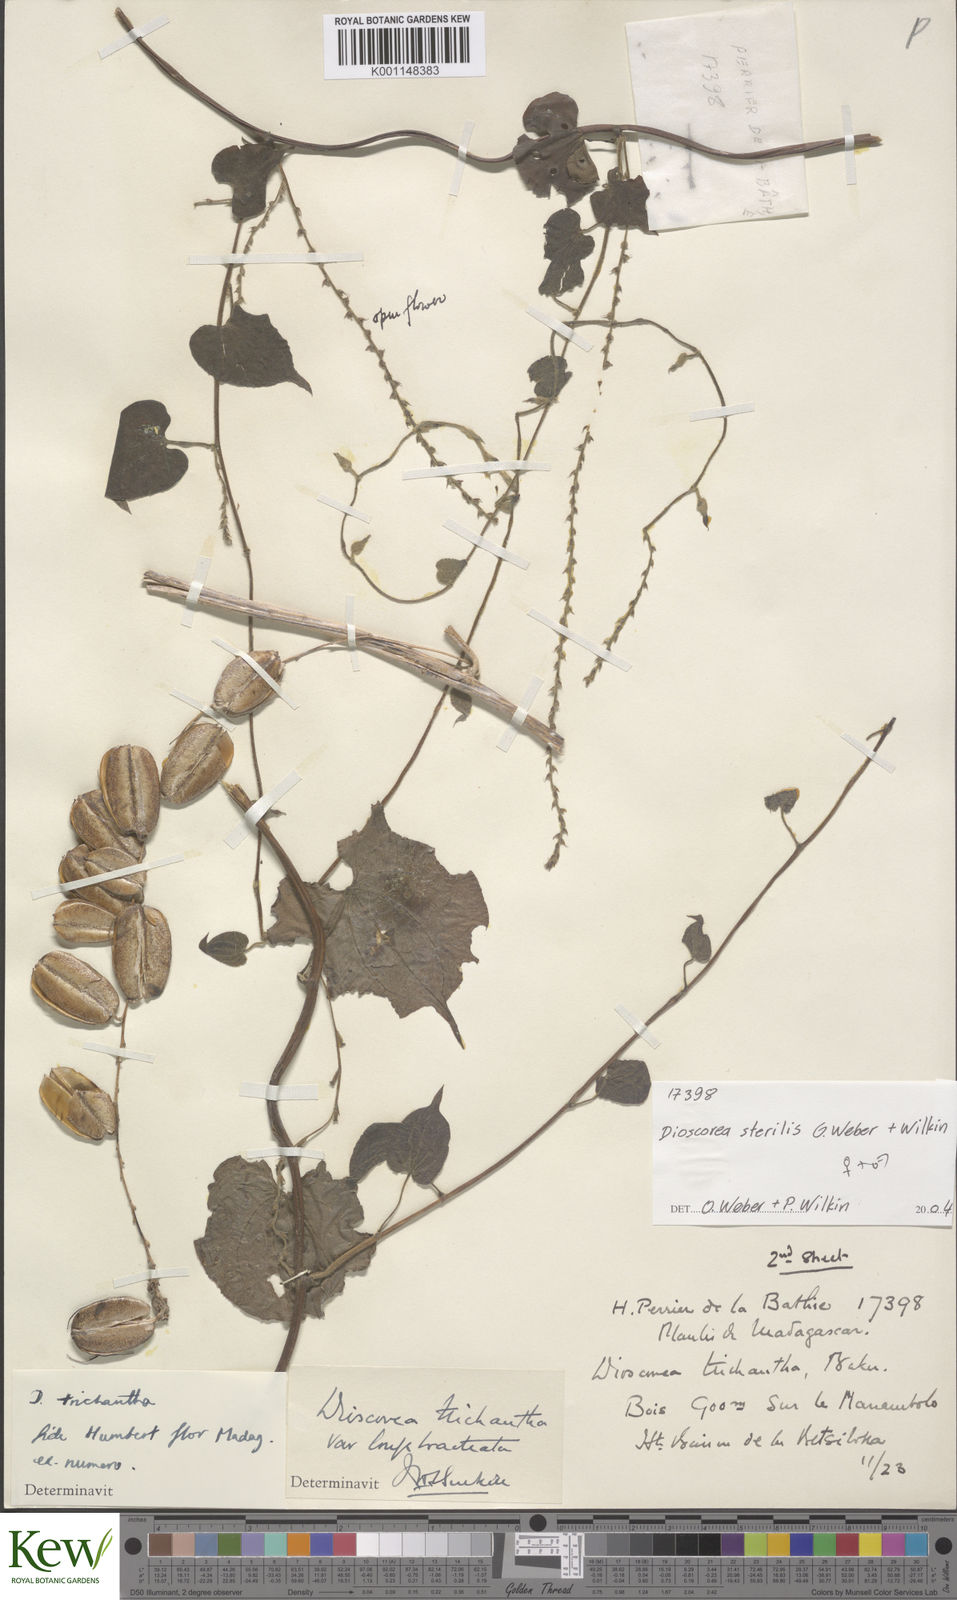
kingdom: Plantae
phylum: Tracheophyta
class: Liliopsida
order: Dioscoreales
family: Dioscoreaceae
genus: Dioscorea
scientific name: Dioscorea sterilis
